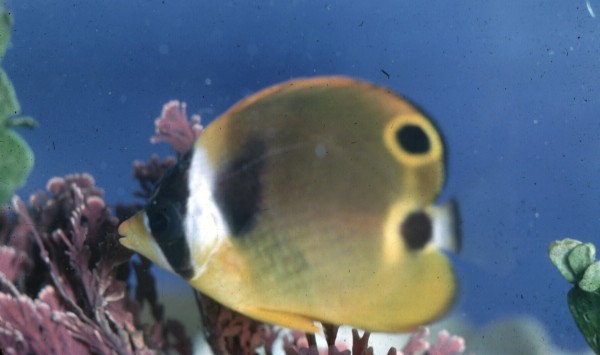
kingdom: Animalia
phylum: Chordata
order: Perciformes
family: Chaetodontidae
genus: Chaetodon
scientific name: Chaetodon lunula
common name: Raccoon butterflyfish
